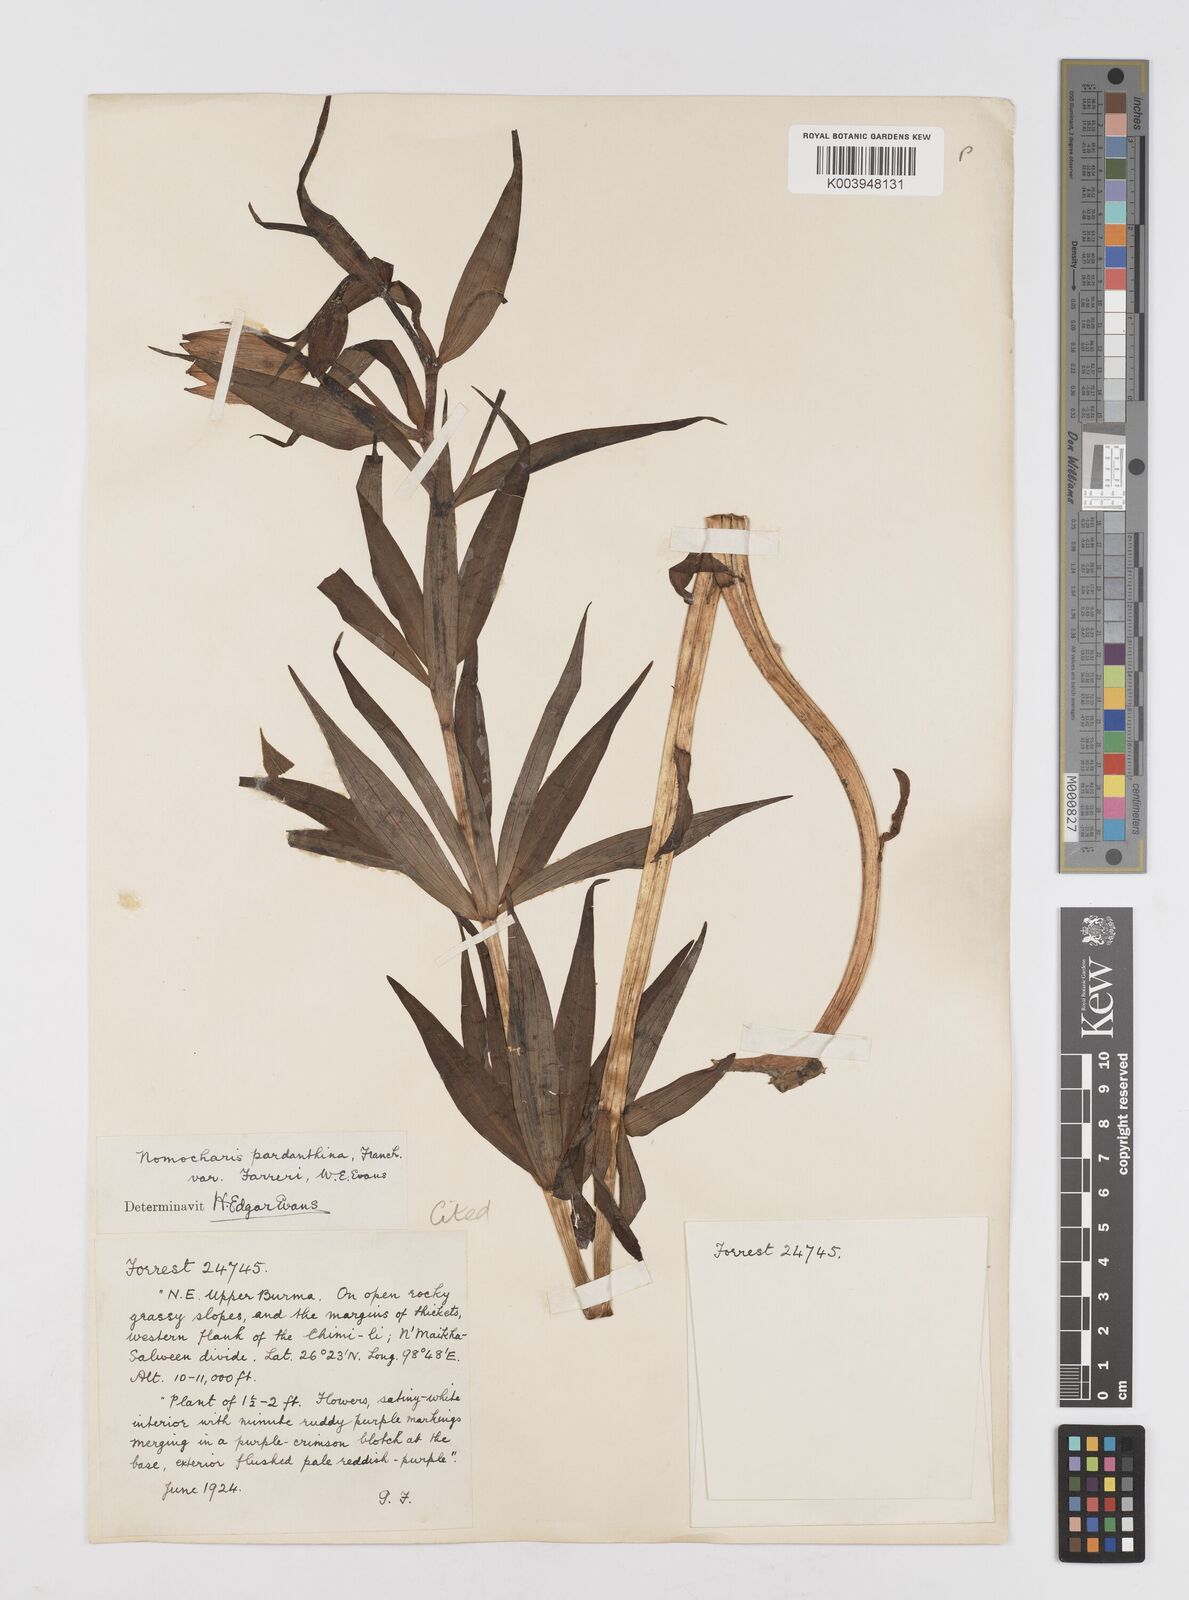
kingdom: Plantae
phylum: Tracheophyta
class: Liliopsida
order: Liliales
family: Liliaceae
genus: Lilium
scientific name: Lilium sealyi
